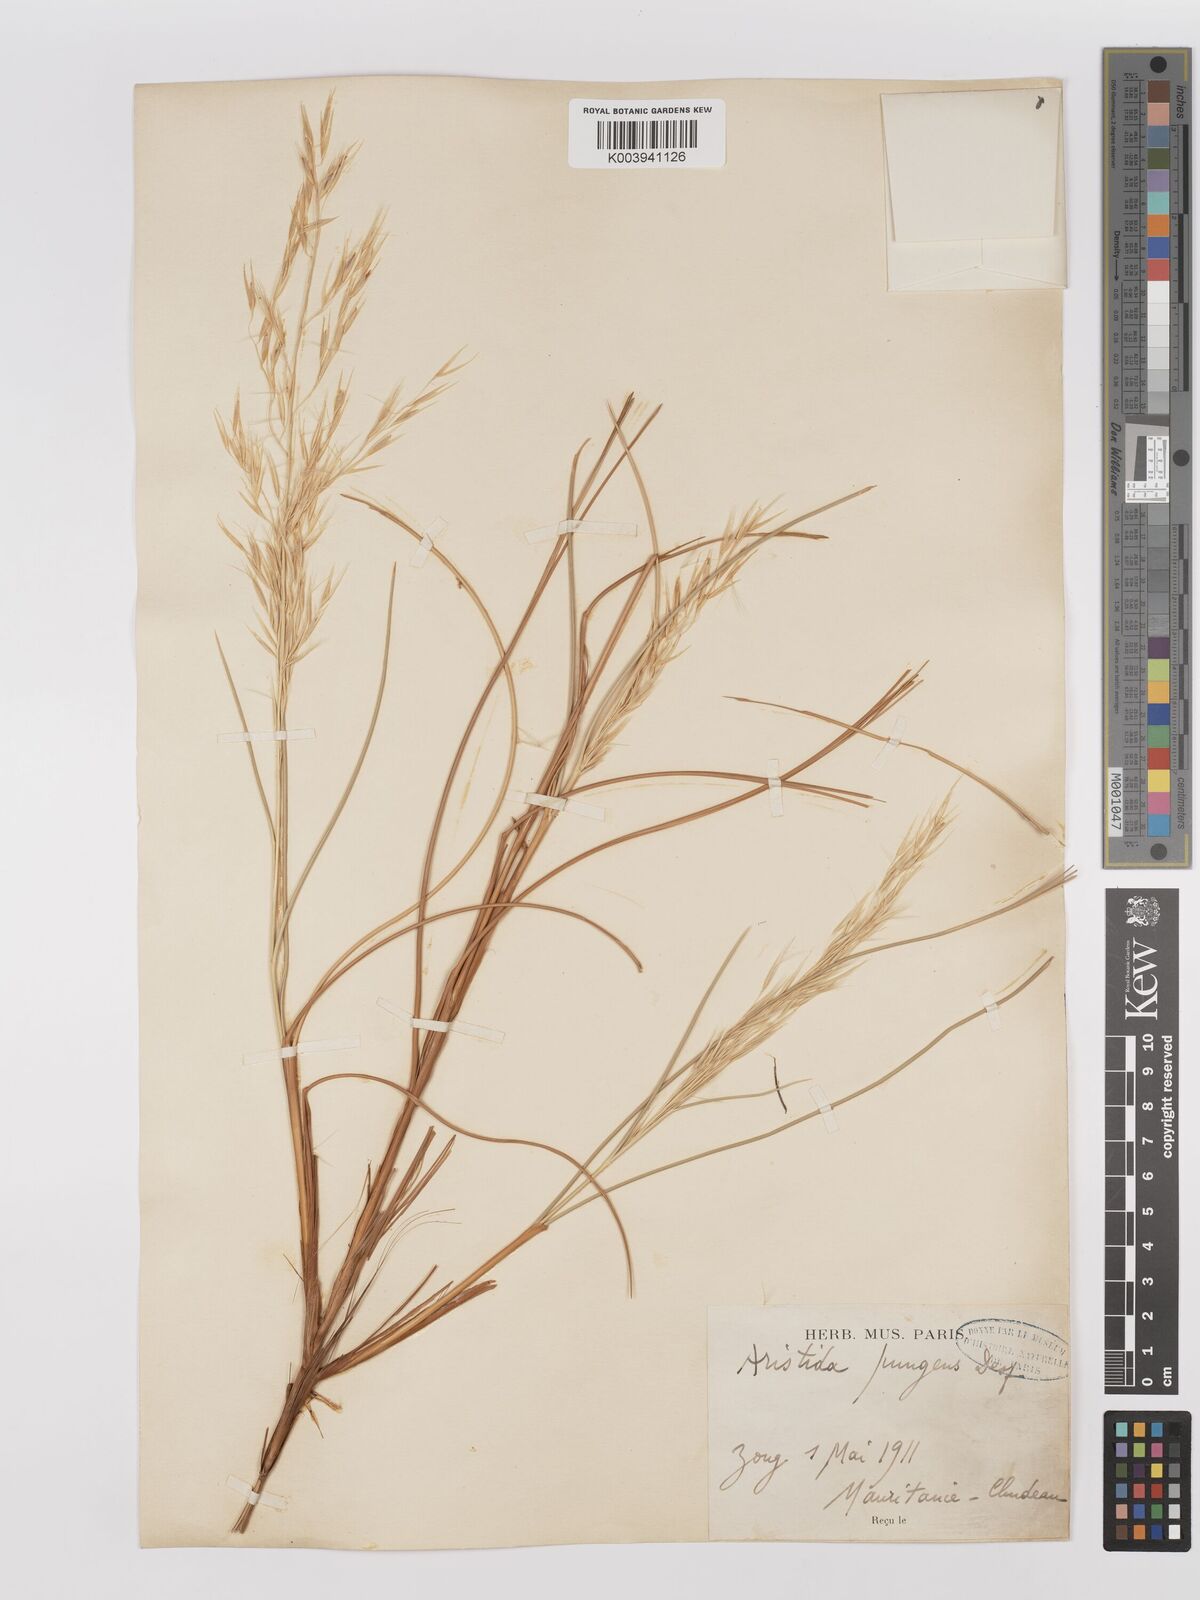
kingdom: Plantae
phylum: Tracheophyta
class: Liliopsida
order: Poales
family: Poaceae
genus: Stipagrostis
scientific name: Stipagrostis pungens
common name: Three-awn grass
